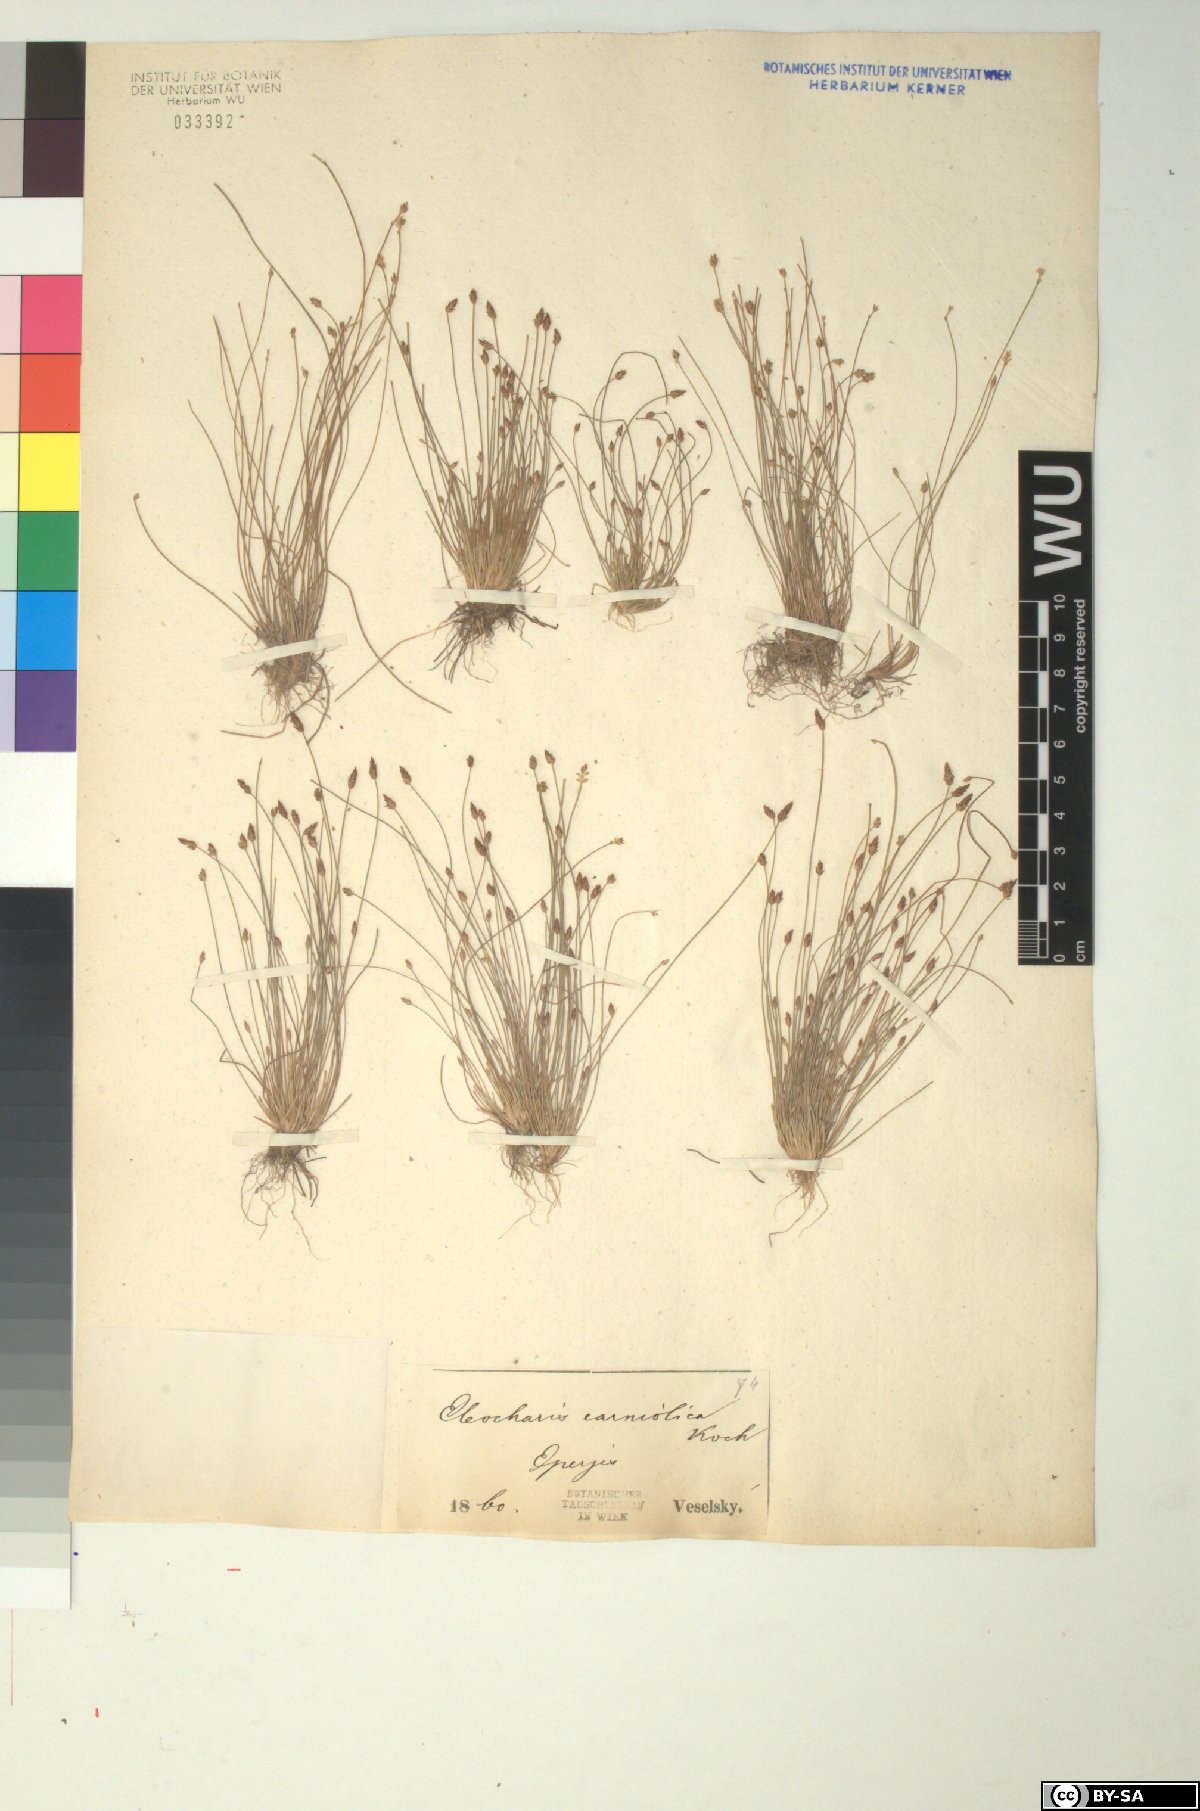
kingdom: Plantae
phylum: Tracheophyta
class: Liliopsida
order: Poales
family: Cyperaceae
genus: Eleocharis
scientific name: Eleocharis carniolica
